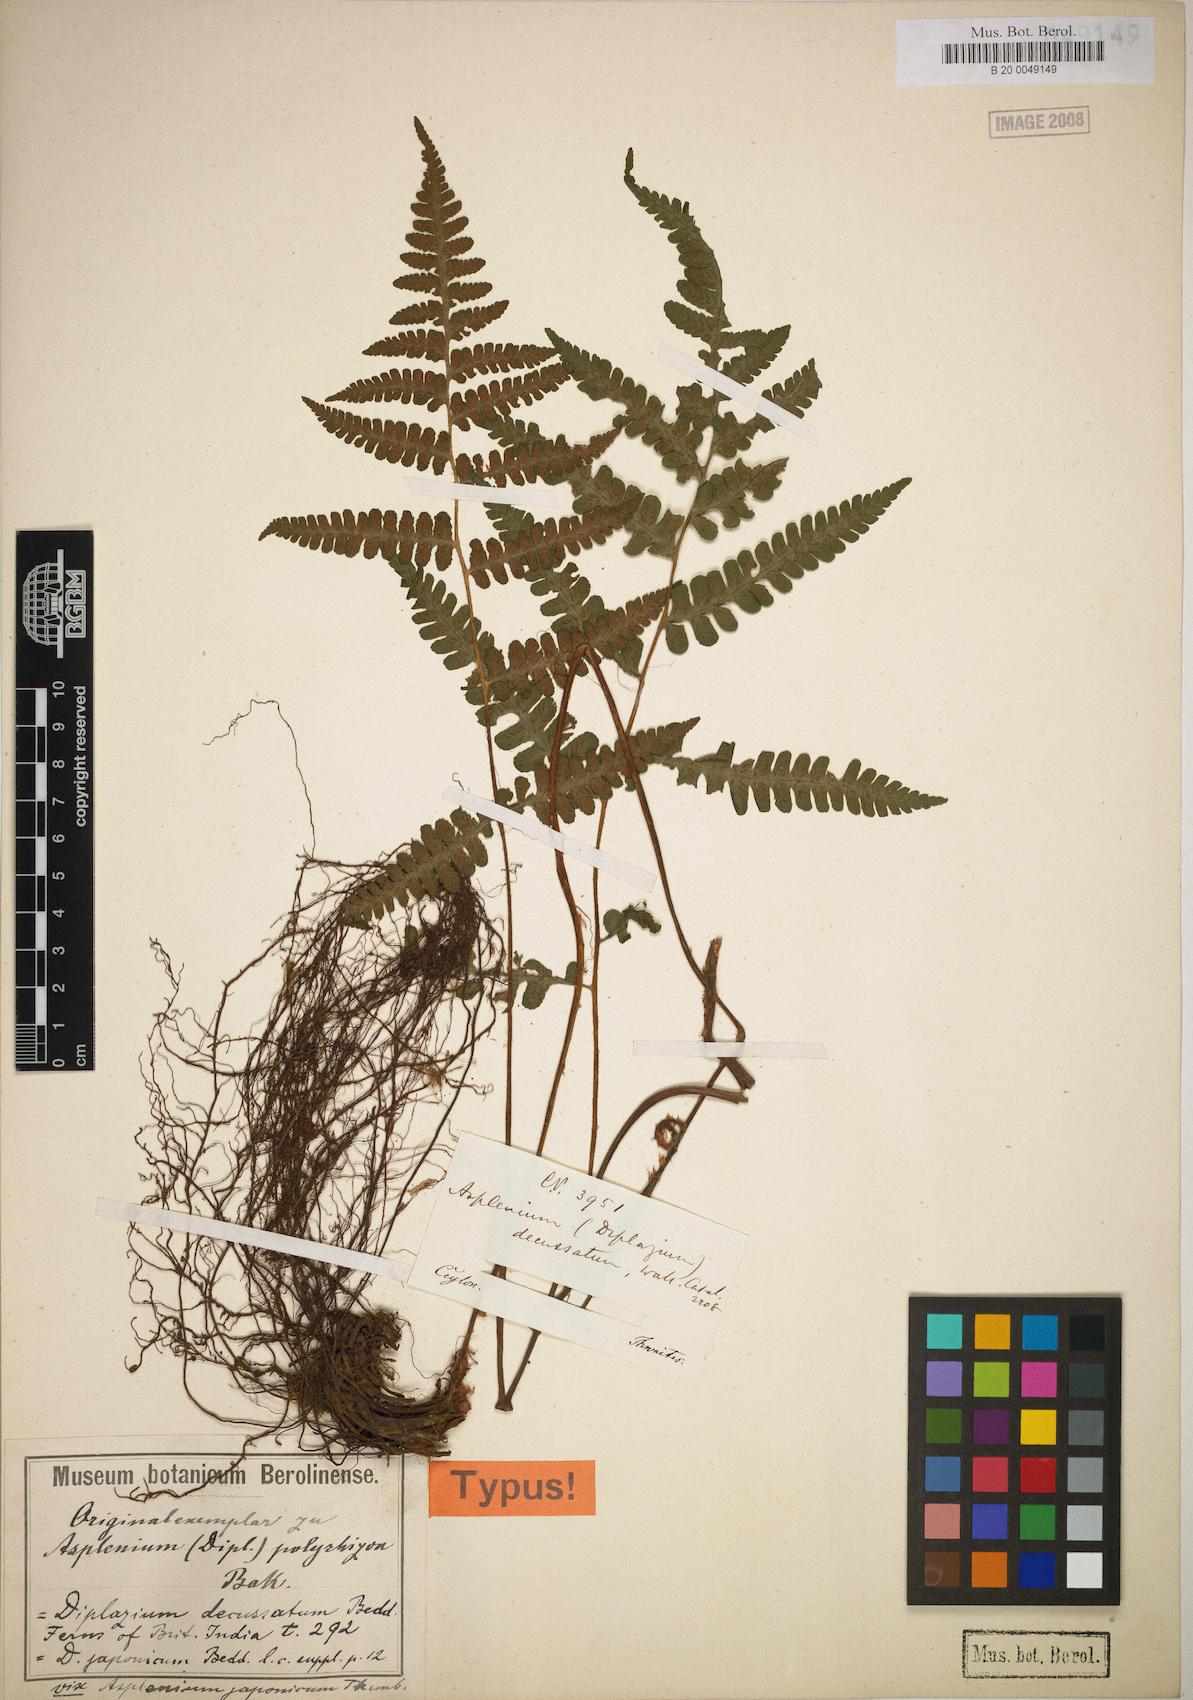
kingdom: Plantae
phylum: Tracheophyta
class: Polypodiopsida
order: Polypodiales
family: Athyriaceae
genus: Deparia
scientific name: Deparia polyrhizon
